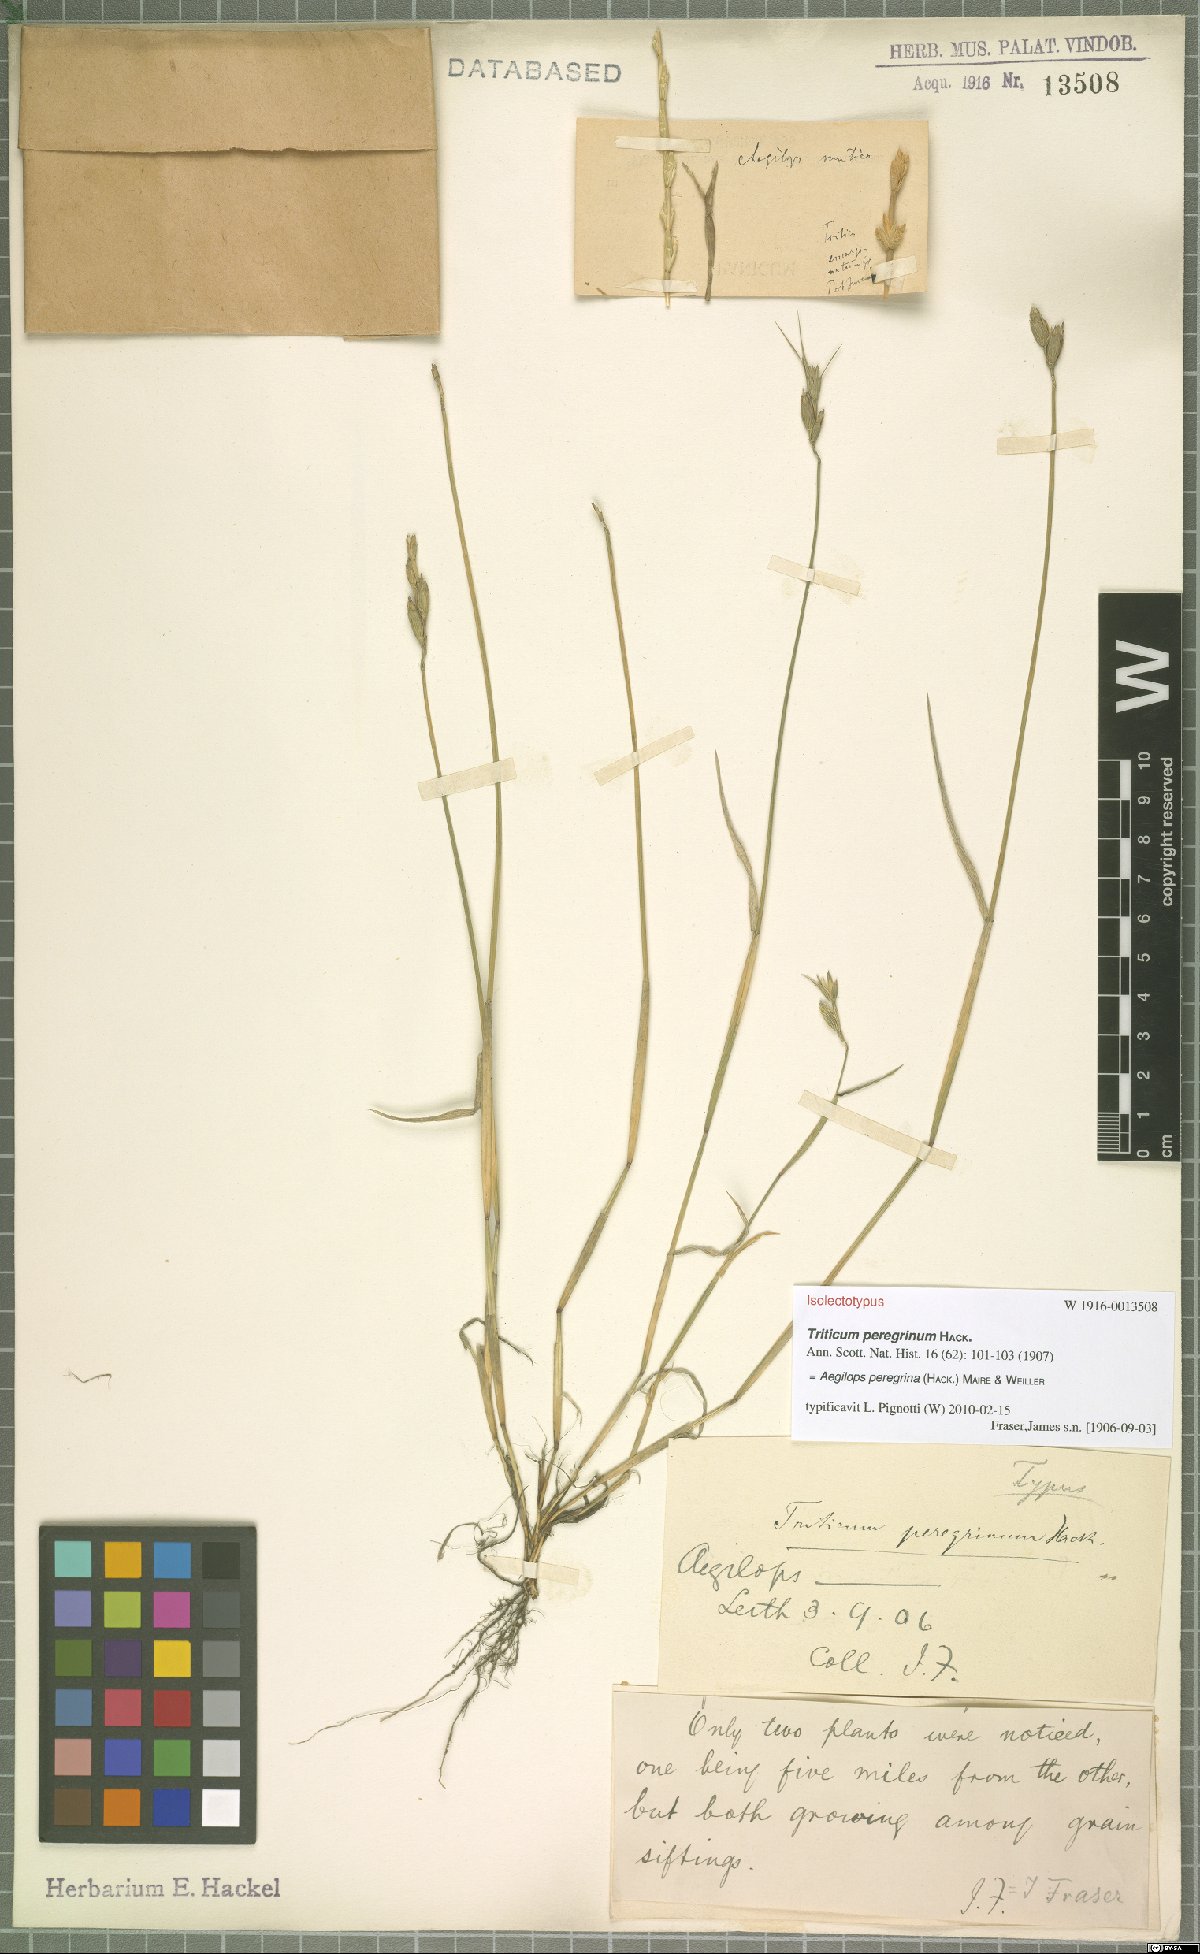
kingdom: Plantae
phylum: Tracheophyta
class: Liliopsida
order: Poales
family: Poaceae
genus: Aegilops
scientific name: Aegilops peregrina
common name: Goatgrass
